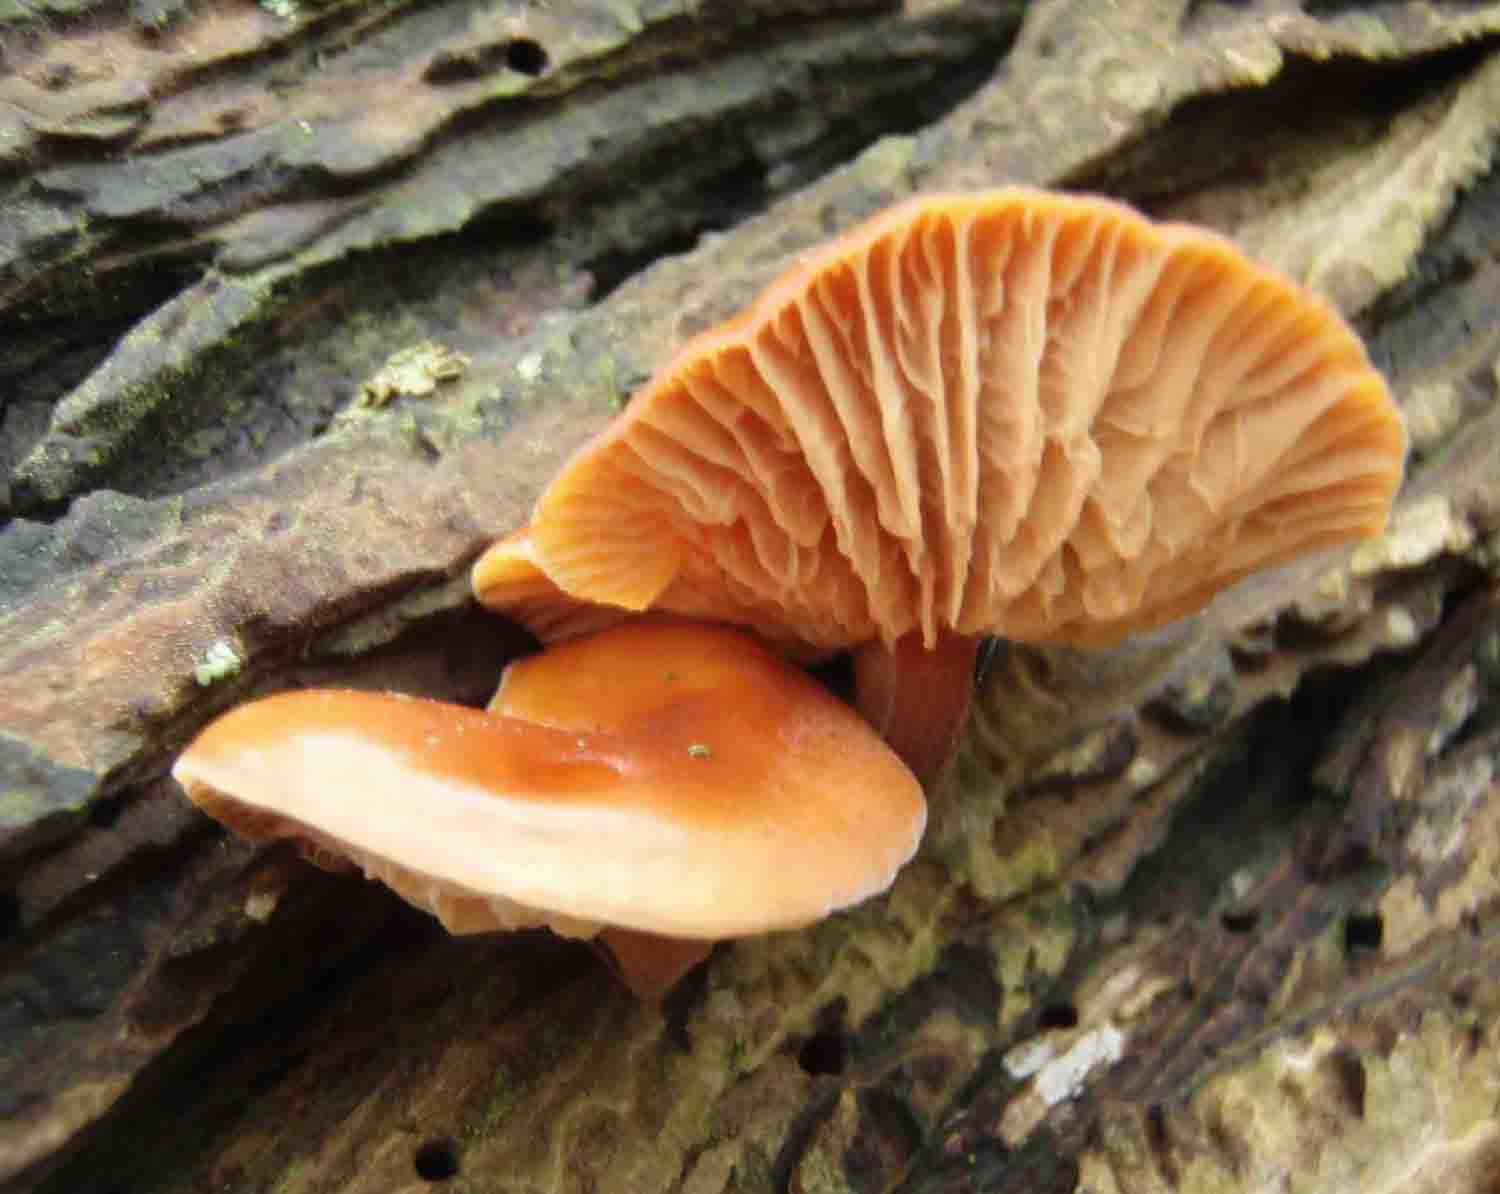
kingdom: Fungi
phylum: Basidiomycota
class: Agaricomycetes
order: Agaricales
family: Physalacriaceae
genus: Flammulina
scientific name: Flammulina elastica
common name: pile-fløjlsfod
